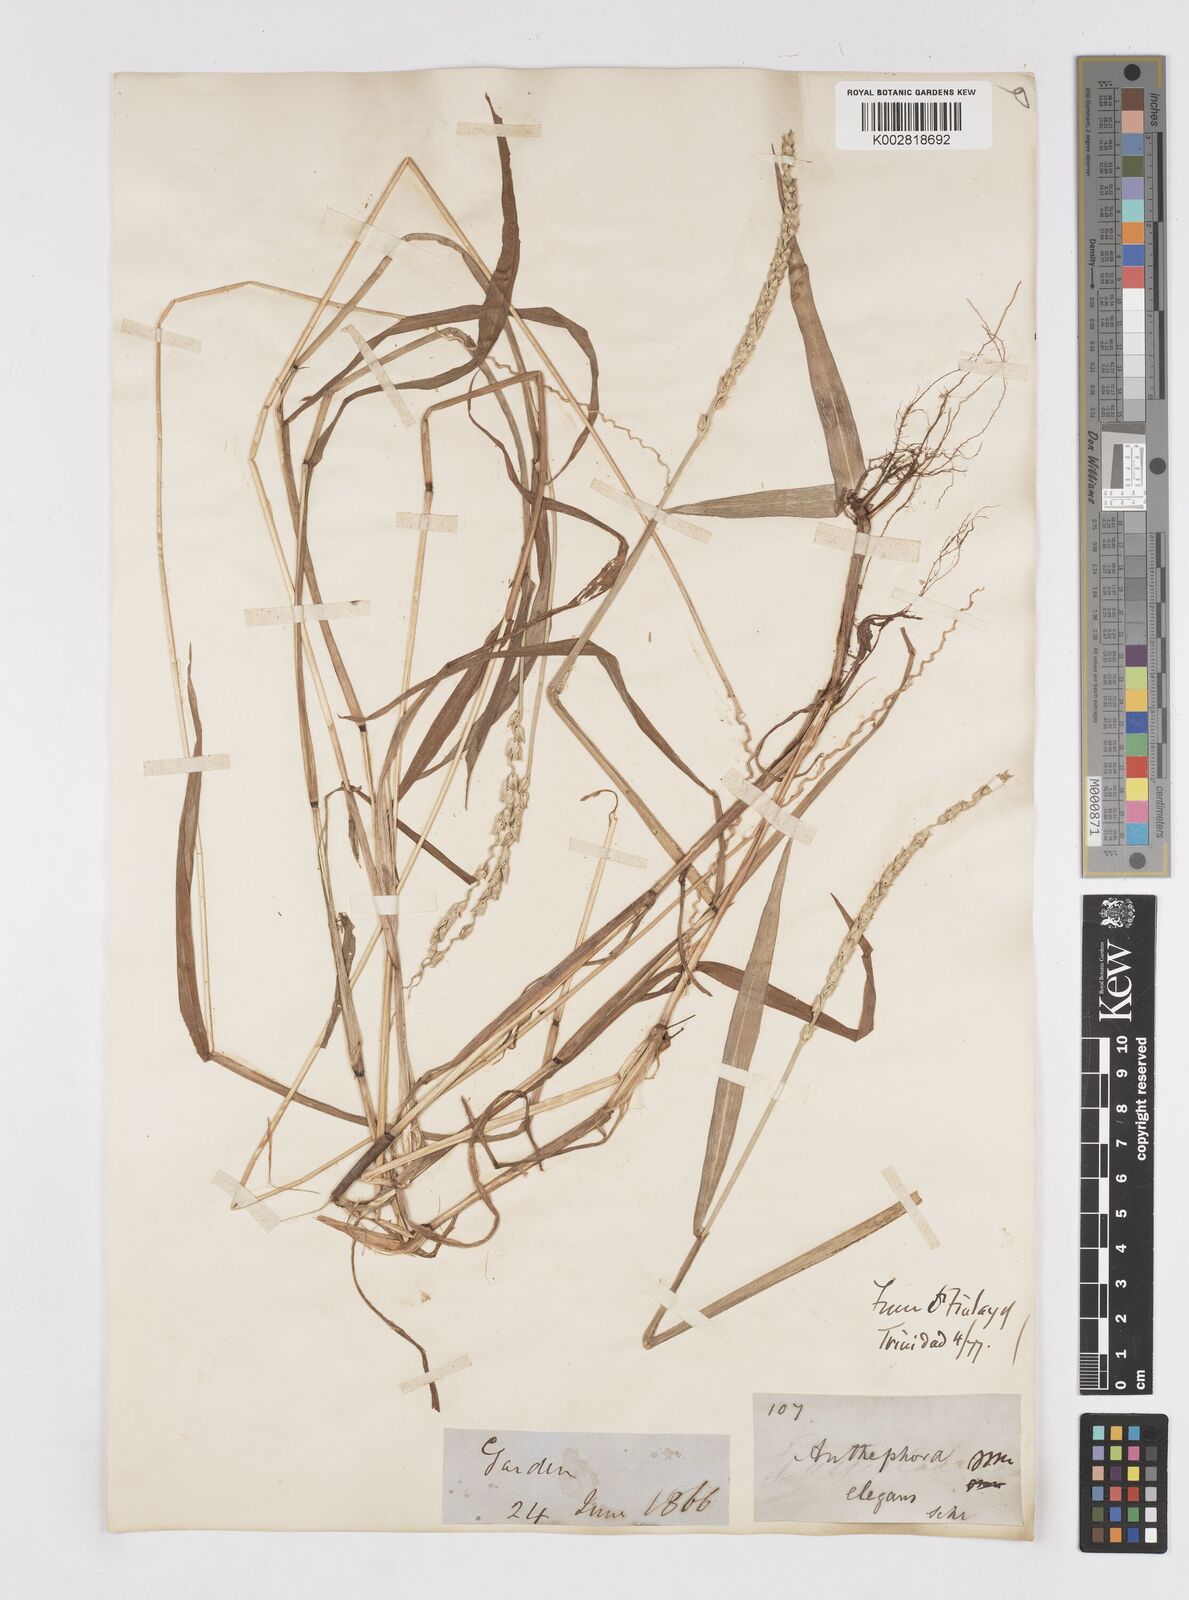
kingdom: Plantae
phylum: Tracheophyta
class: Liliopsida
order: Poales
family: Poaceae
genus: Anthephora
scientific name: Anthephora hermaphrodita
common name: Oldfield grass
